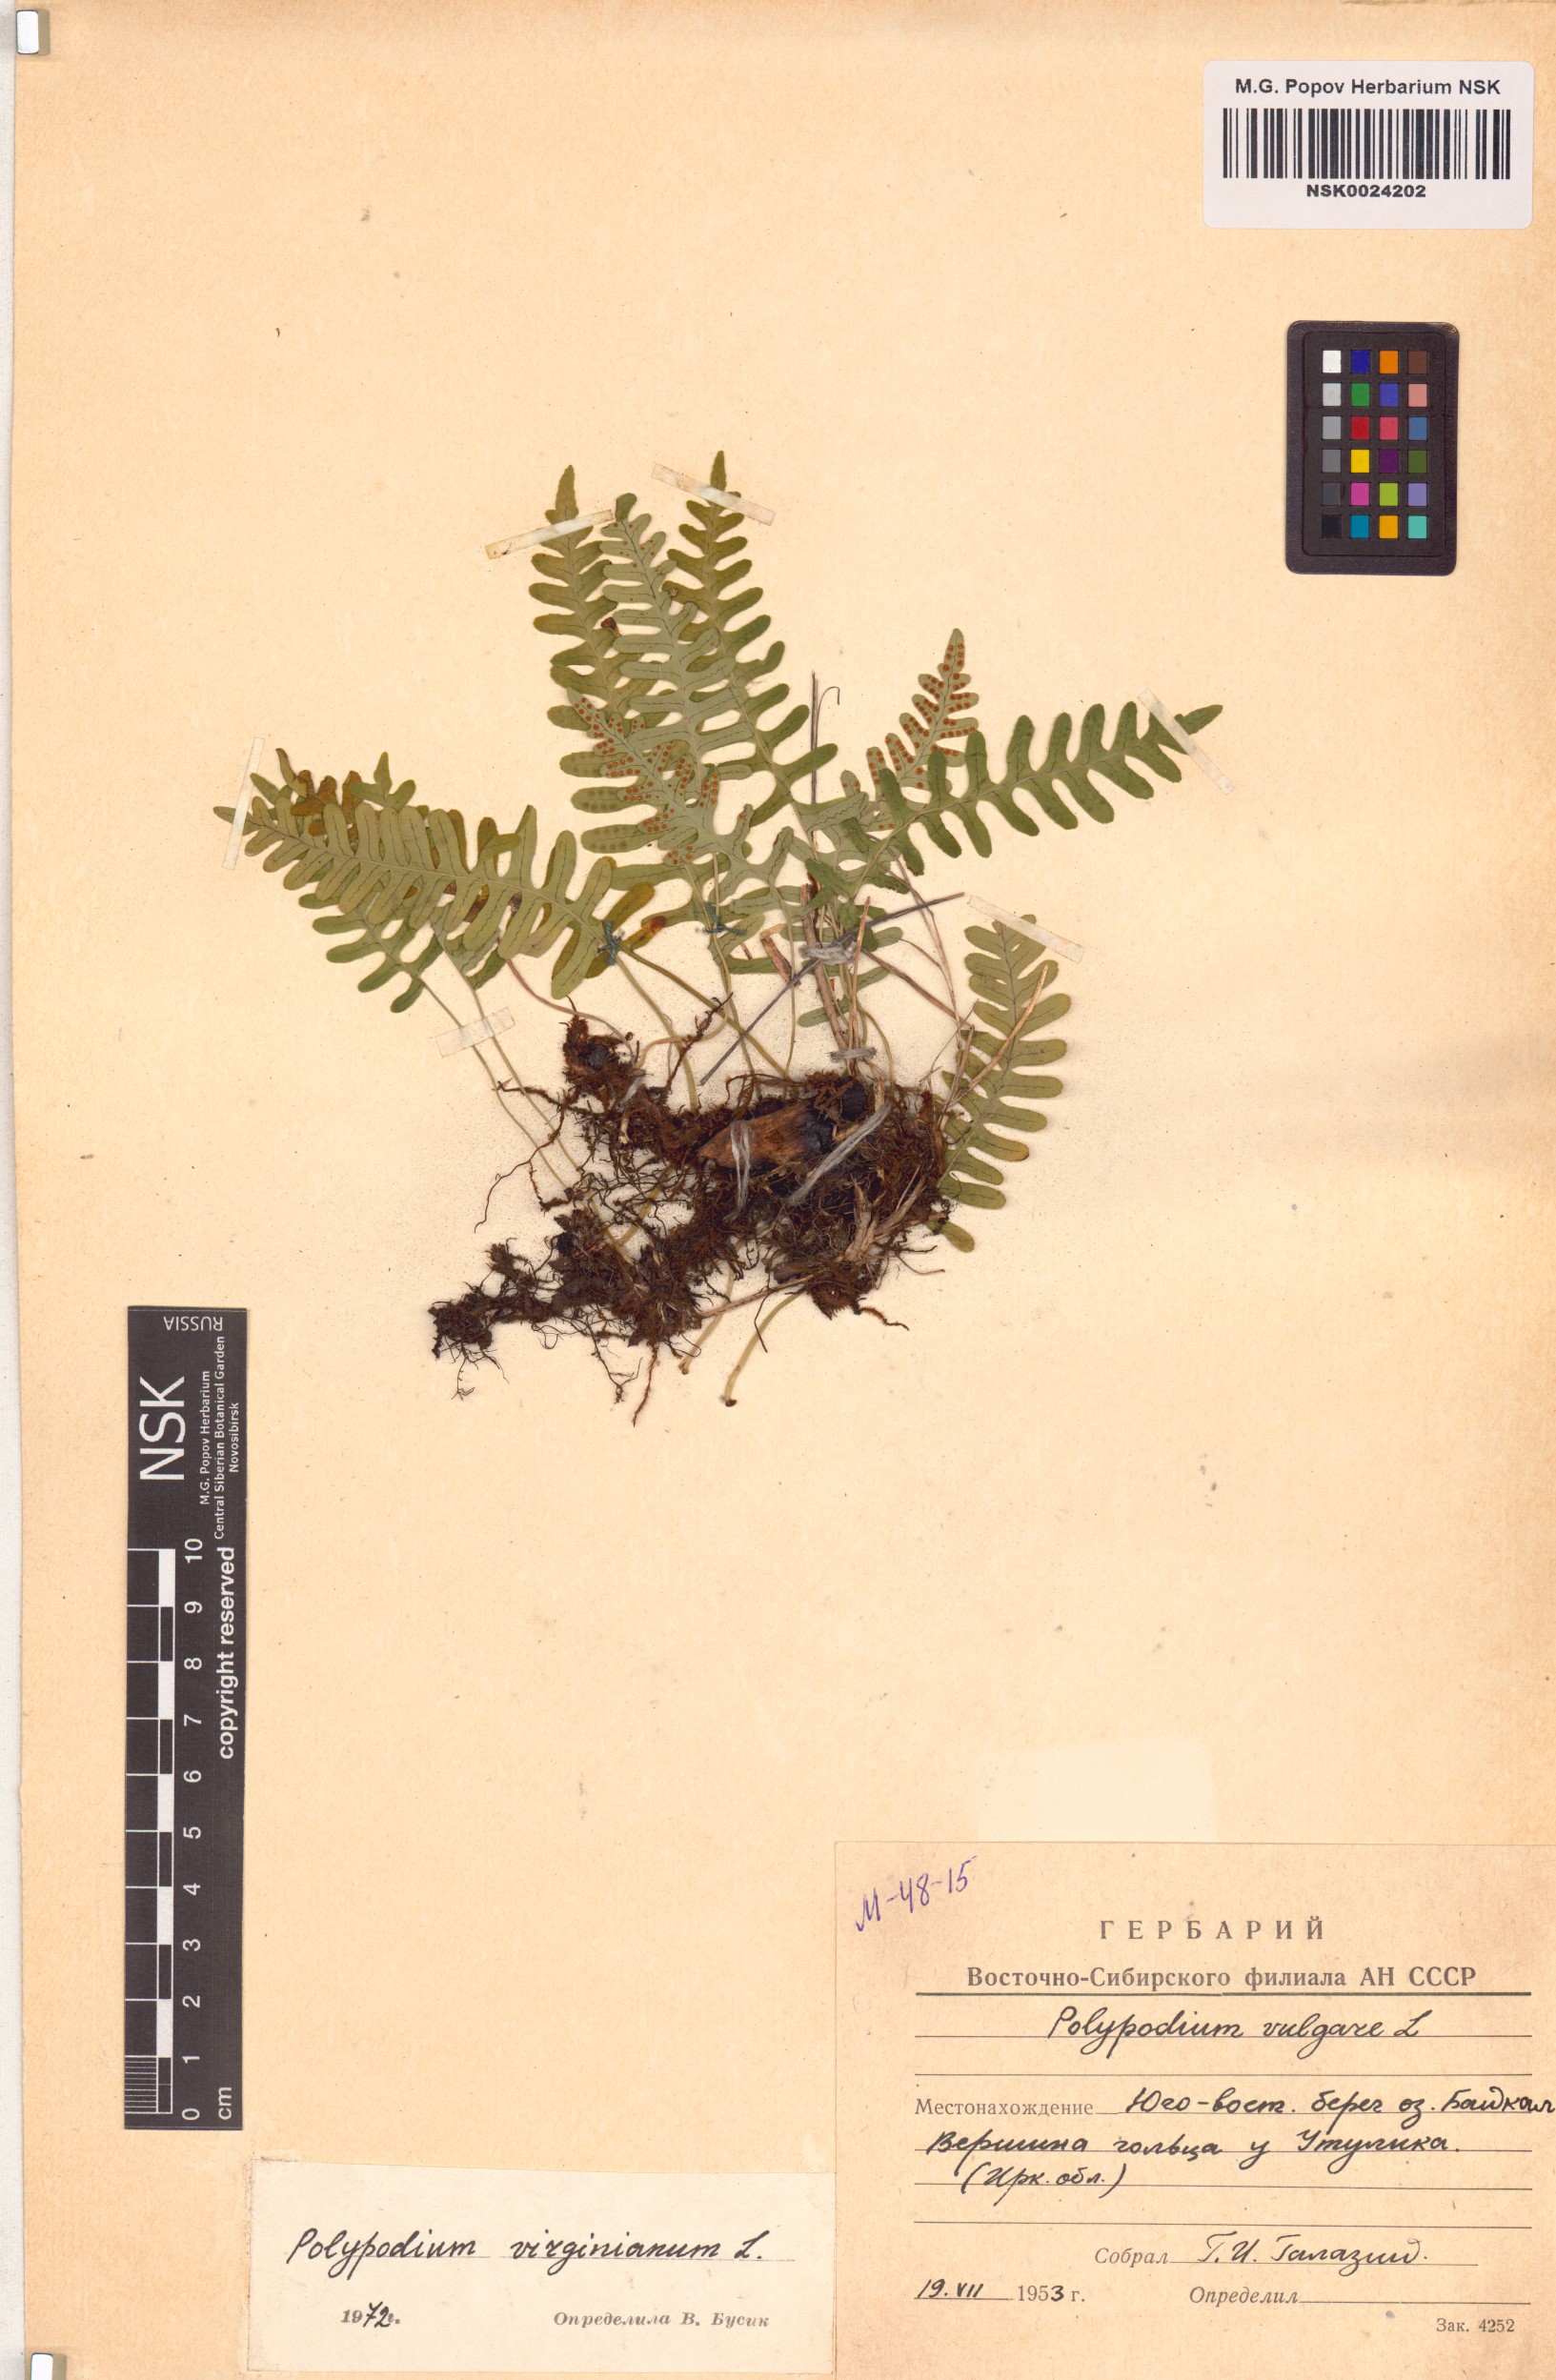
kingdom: Plantae
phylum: Tracheophyta
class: Polypodiopsida
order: Polypodiales
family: Polypodiaceae
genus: Polypodium
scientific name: Polypodium virginianum
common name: American wall fern
